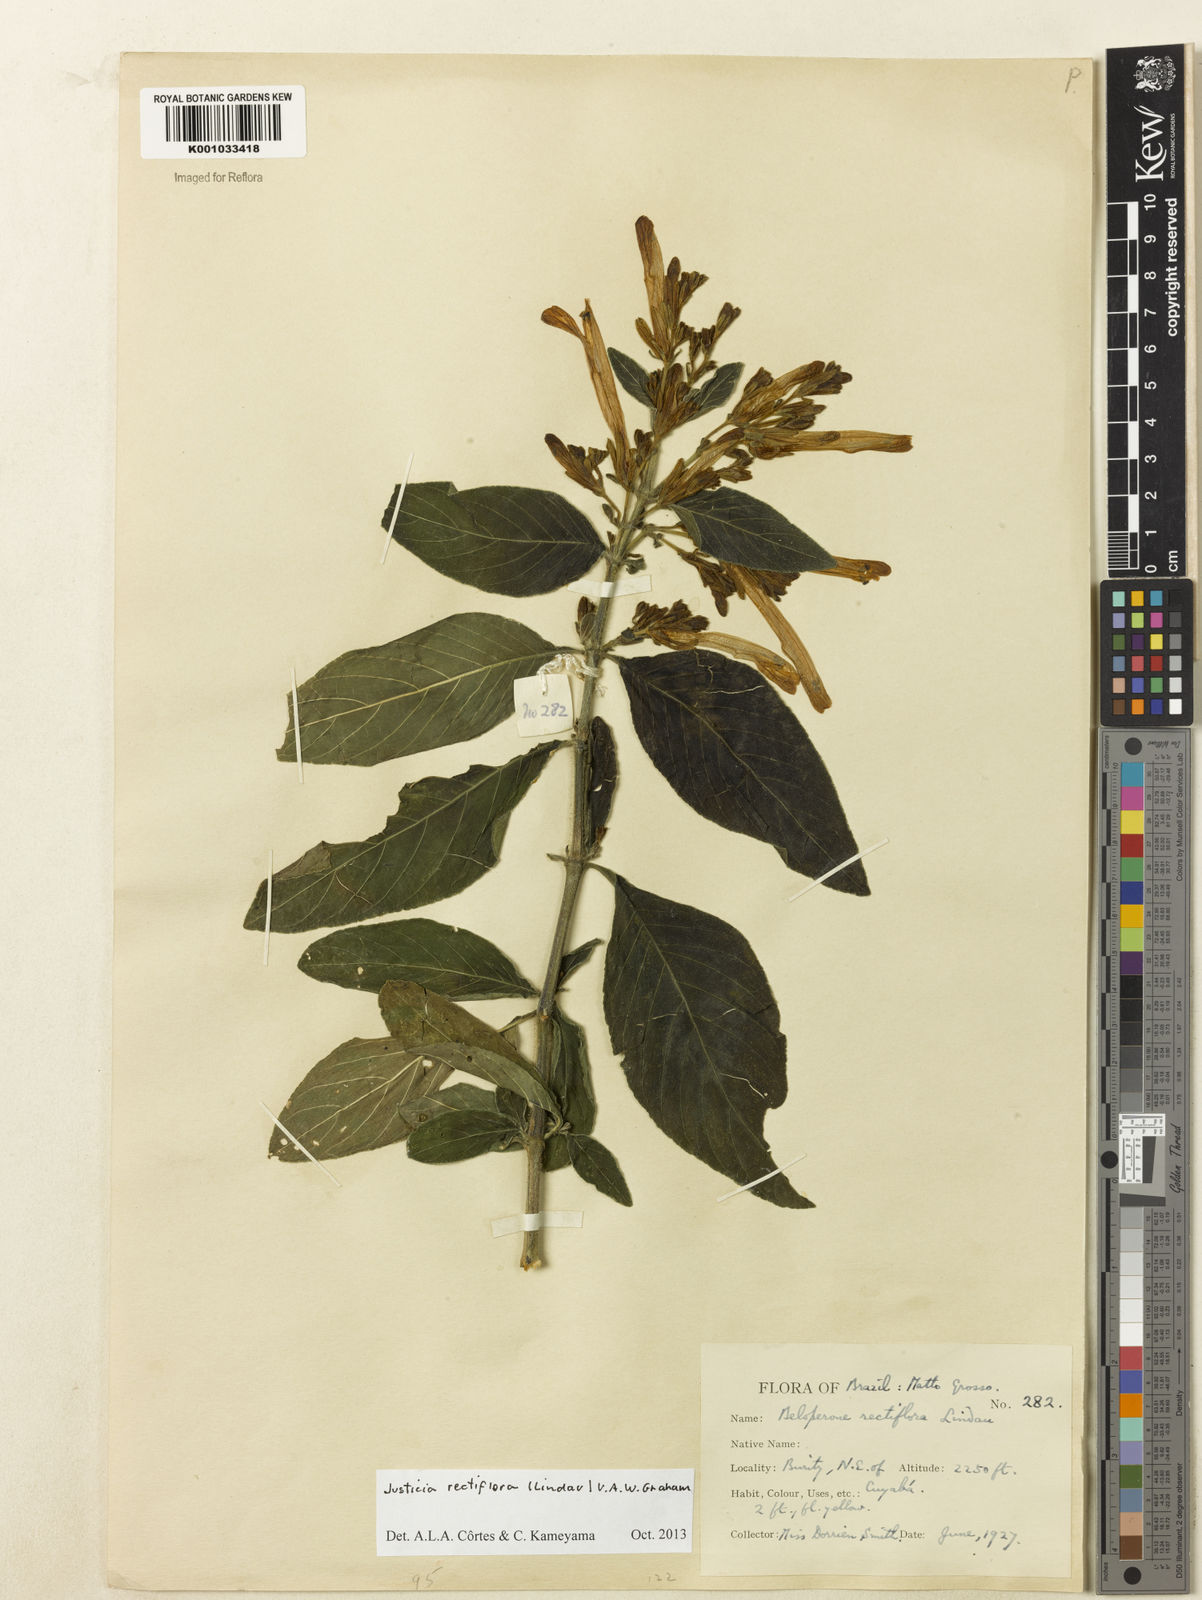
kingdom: Plantae
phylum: Tracheophyta
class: Magnoliopsida
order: Lamiales
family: Acanthaceae
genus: Justicia
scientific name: Justicia rectiflora
